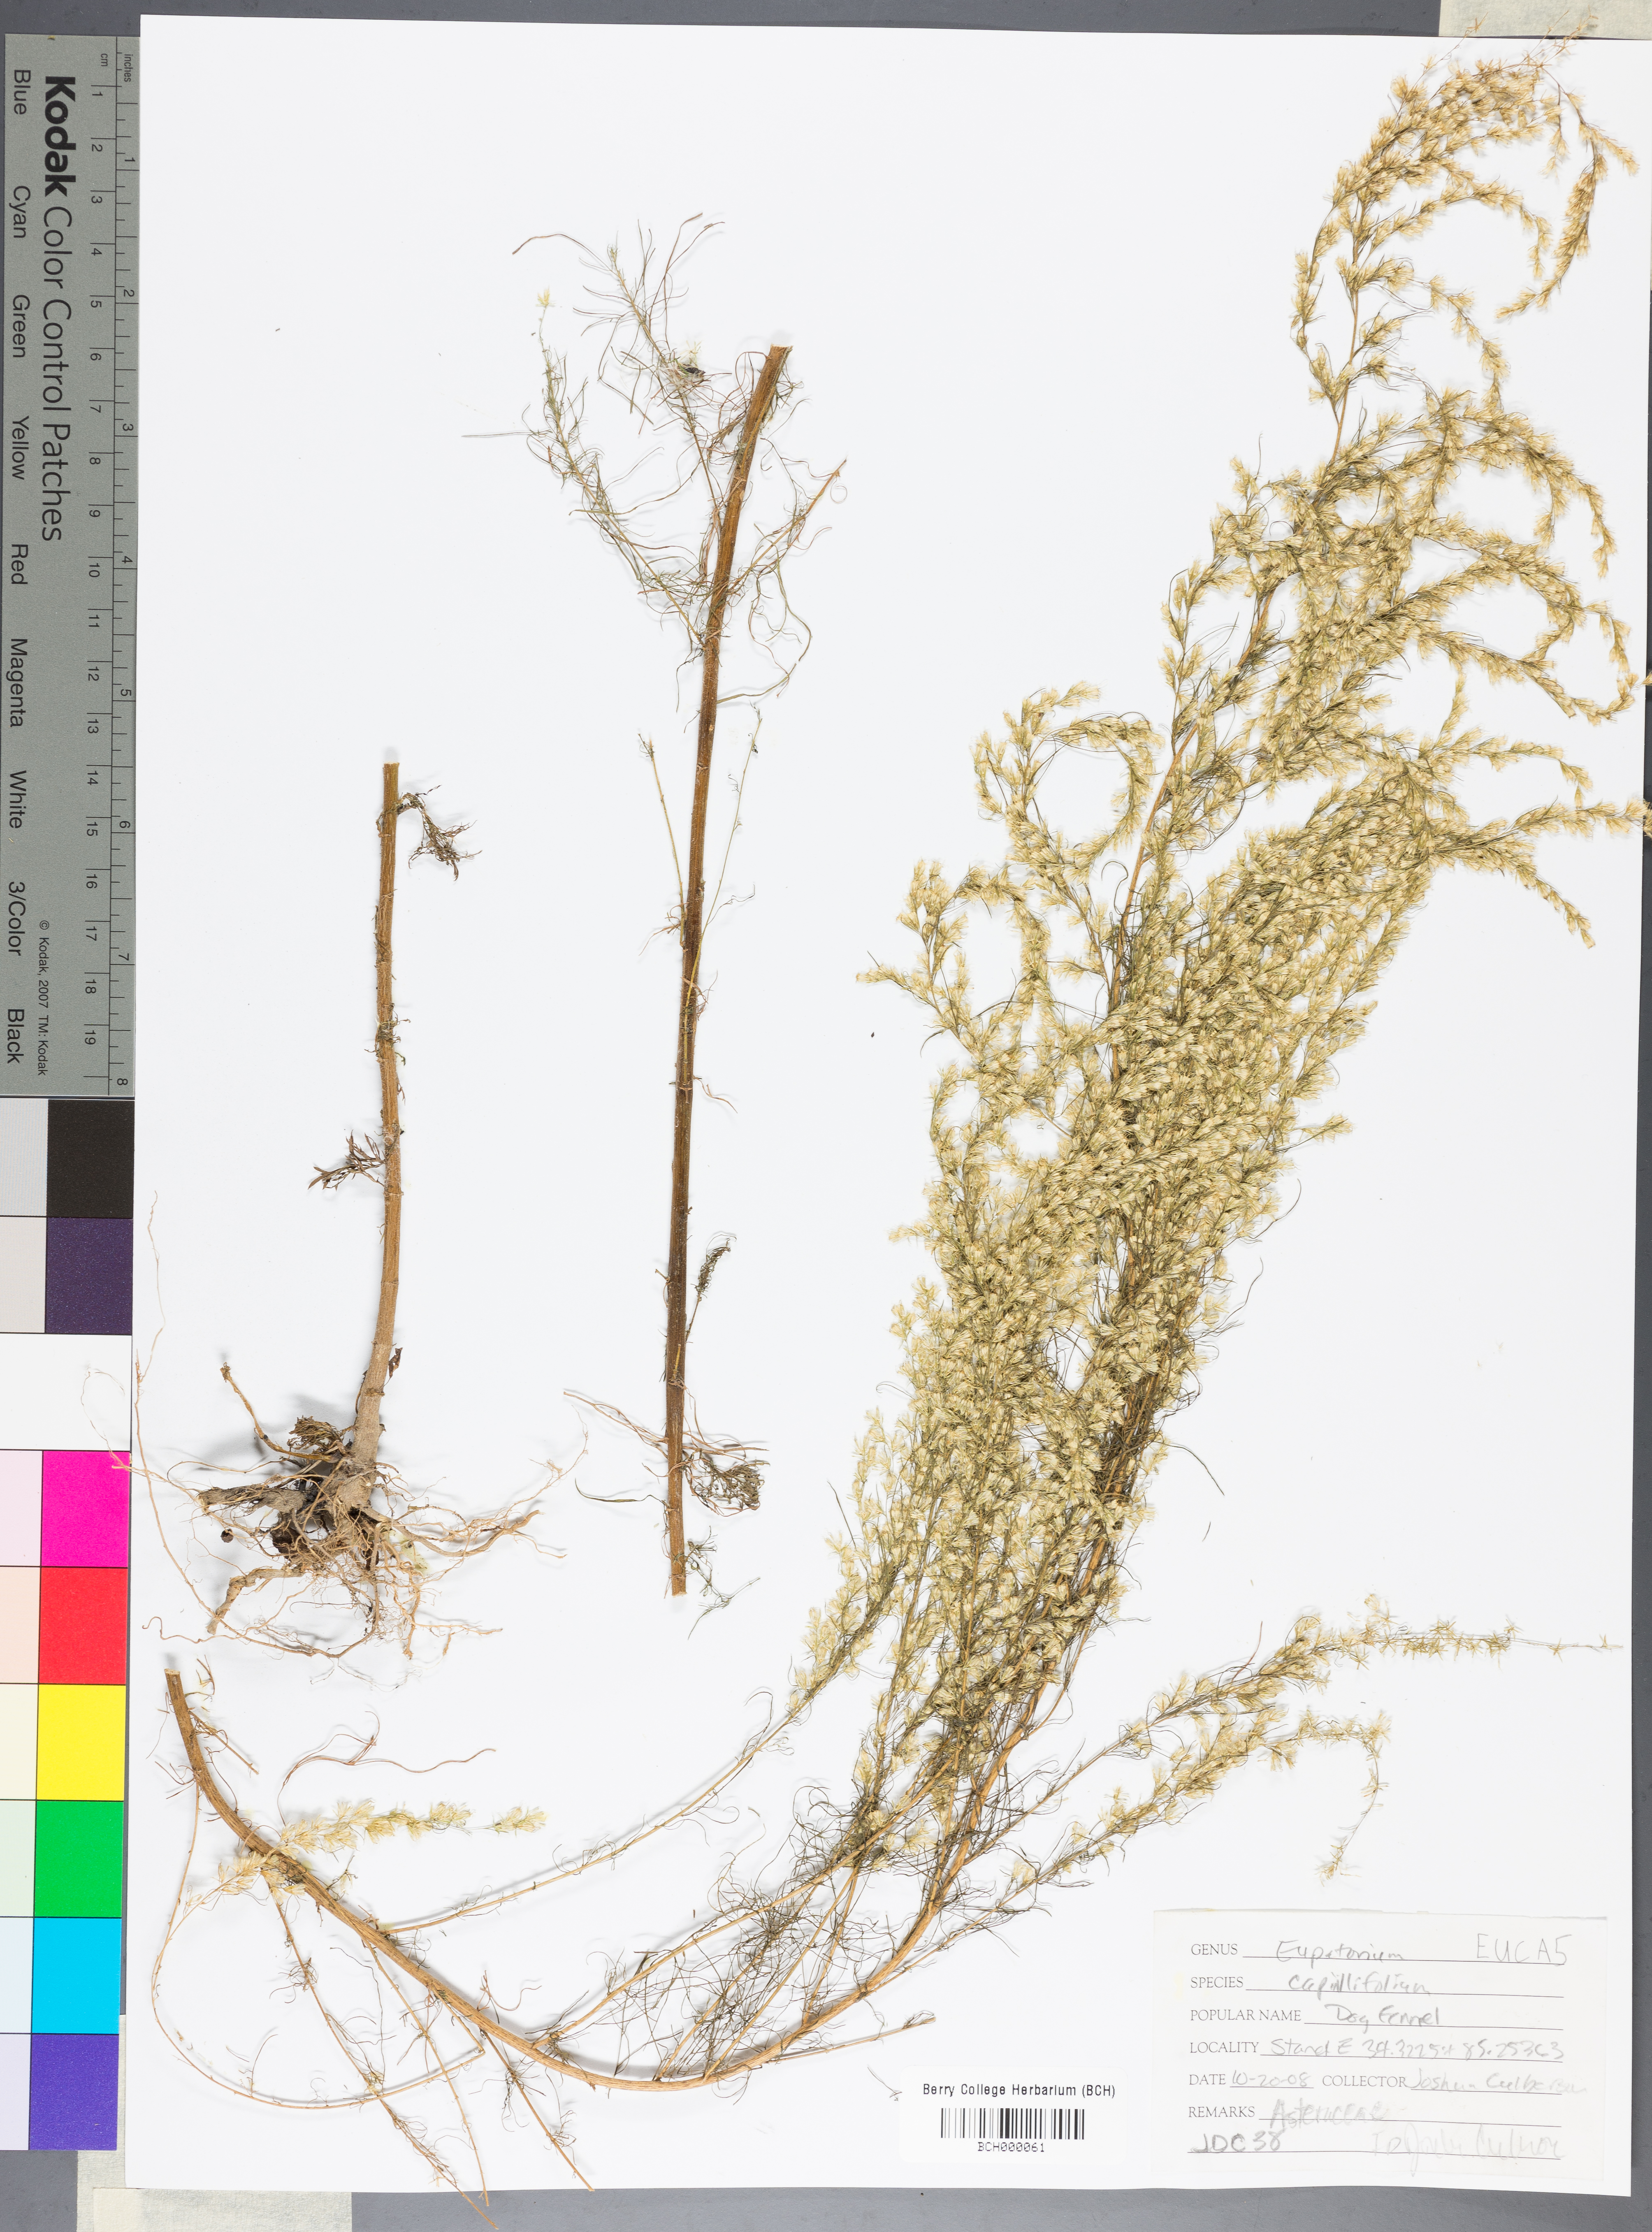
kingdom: Plantae
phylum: Tracheophyta
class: Magnoliopsida
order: Asterales
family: Asteraceae
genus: Eupatorium
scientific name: Eupatorium capillifolium
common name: Dog-fennel
